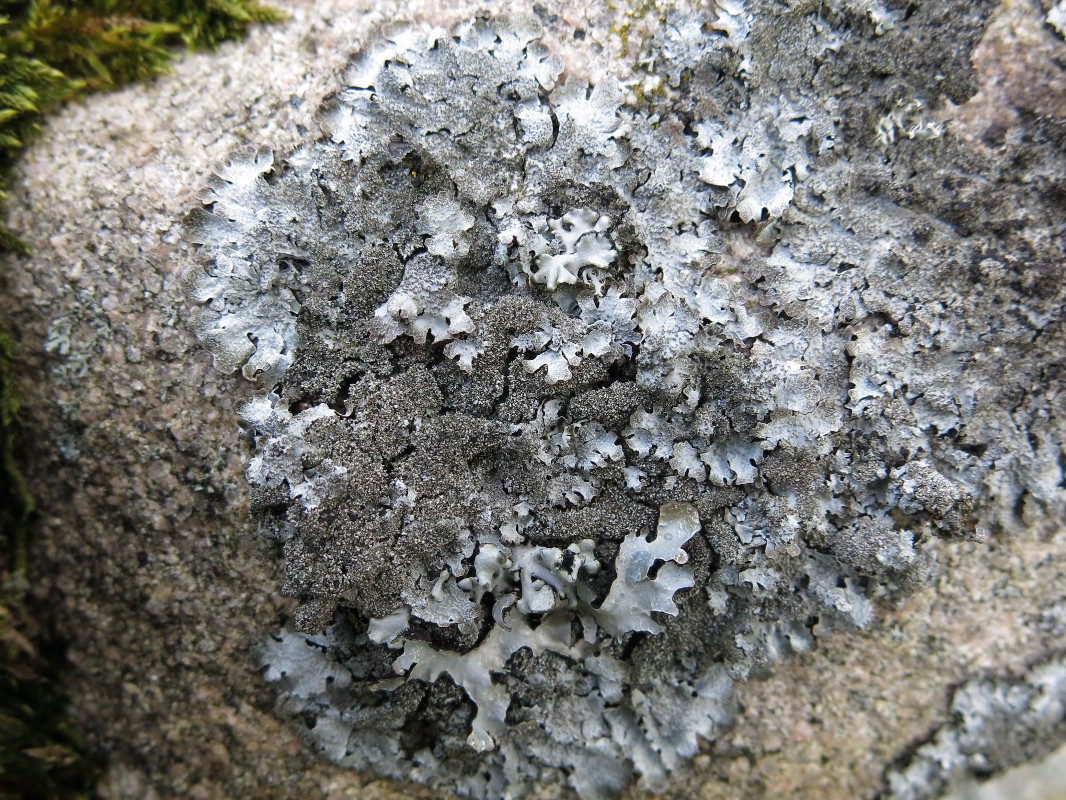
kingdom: Fungi
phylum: Ascomycota
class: Lecanoromycetes
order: Lecanorales
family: Parmeliaceae
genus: Parmelia
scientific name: Parmelia saxatilis
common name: farve-skållav
